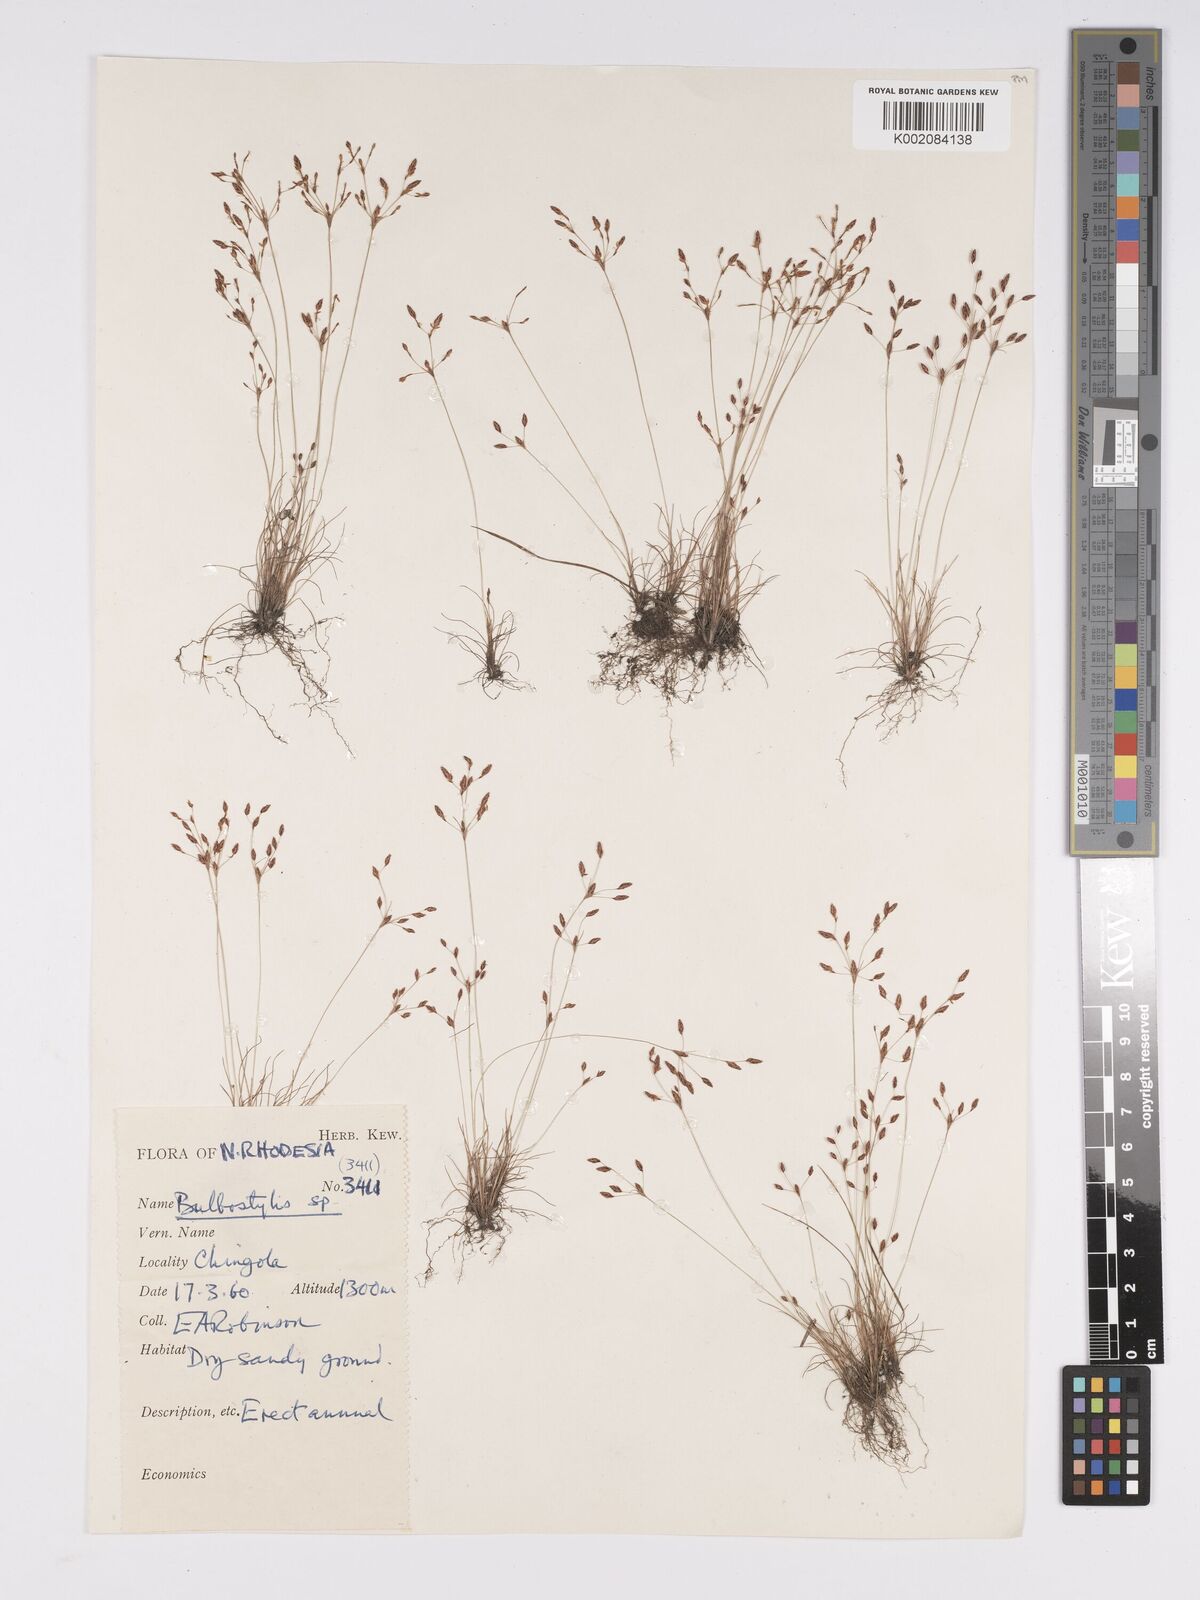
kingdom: Plantae
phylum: Tracheophyta
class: Liliopsida
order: Poales
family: Cyperaceae
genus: Bulbostylis
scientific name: Bulbostylis
